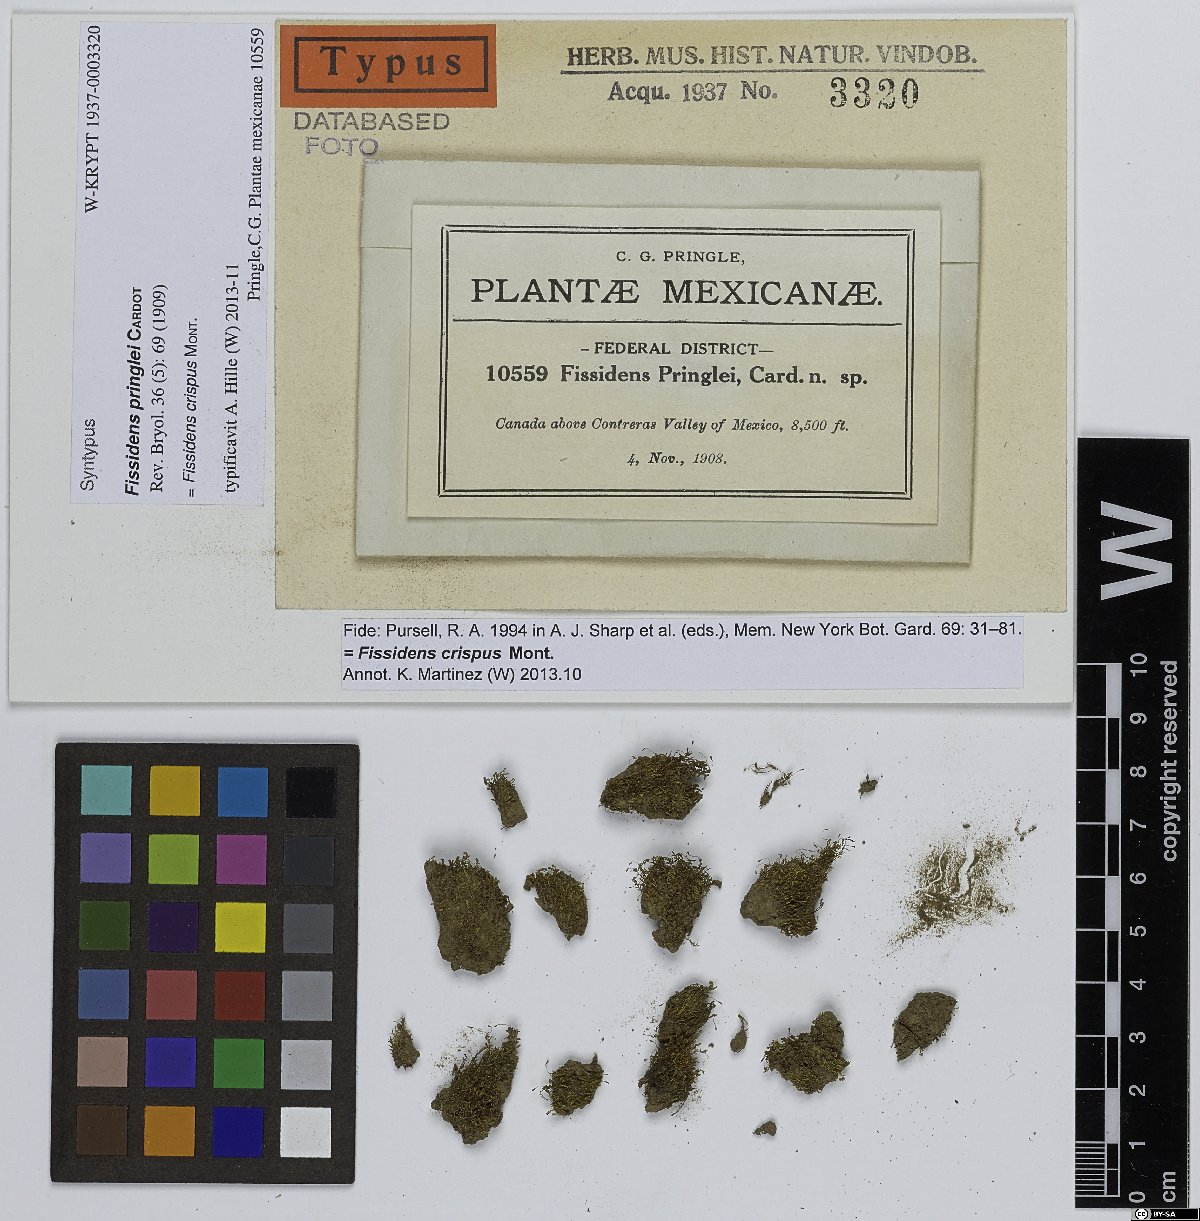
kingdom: Plantae
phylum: Bryophyta
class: Bryopsida
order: Dicranales
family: Fissidentaceae
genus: Fissidens
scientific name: Fissidens crispus
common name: Herzog's pocket-moss
